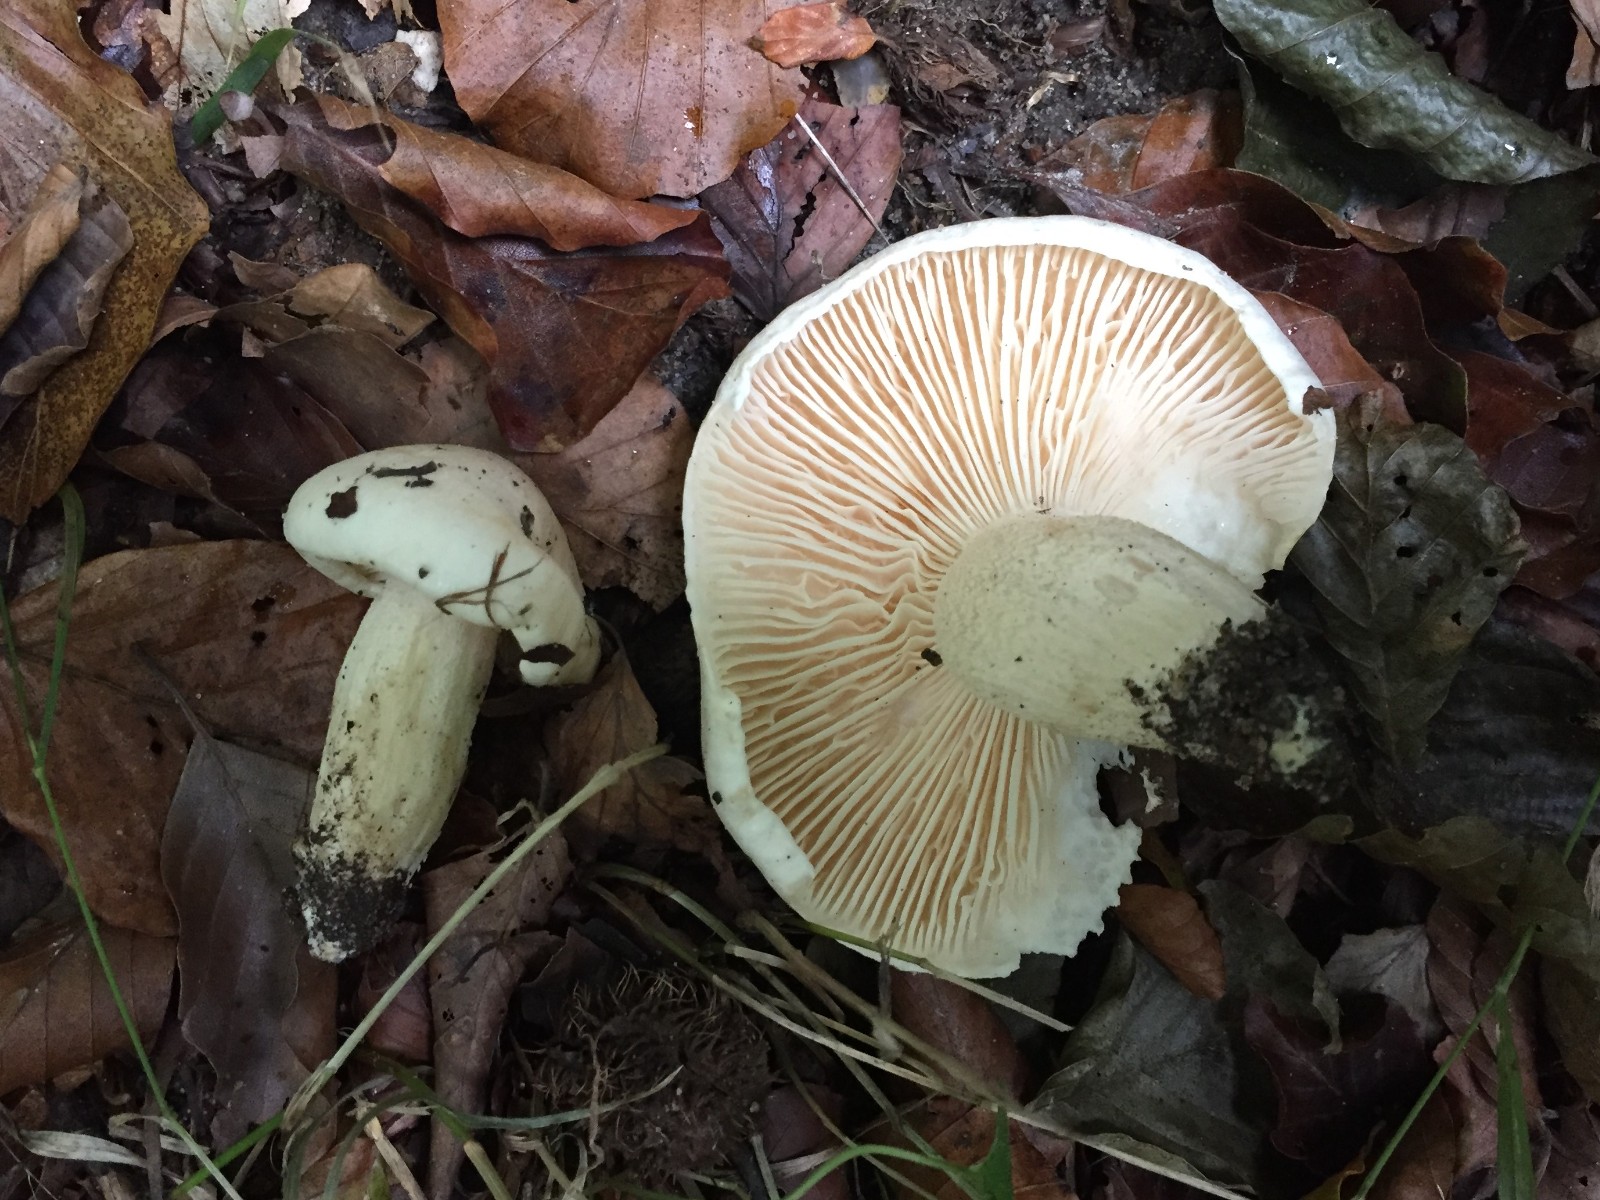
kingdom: Fungi
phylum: Basidiomycota
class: Agaricomycetes
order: Agaricales
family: Hygrophoraceae
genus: Hygrophorus
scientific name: Hygrophorus penarius
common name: spiselig sneglehat
